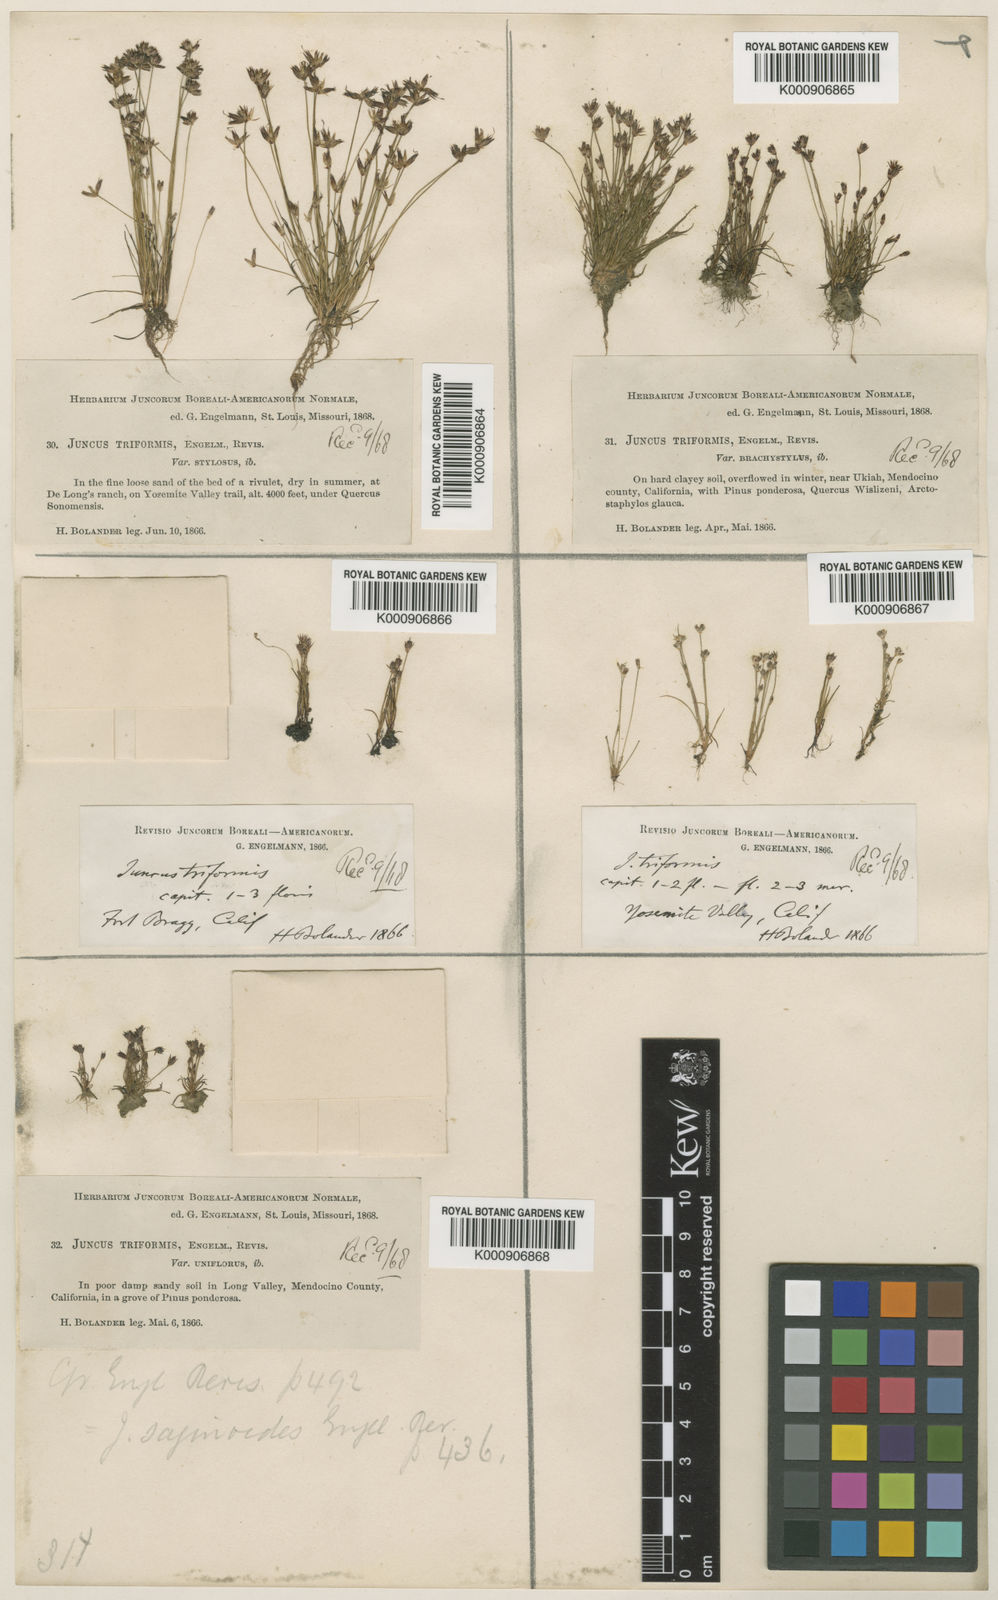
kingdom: Plantae
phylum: Tracheophyta
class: Liliopsida
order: Poales
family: Juncaceae
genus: Juncus
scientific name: Juncus triformis
